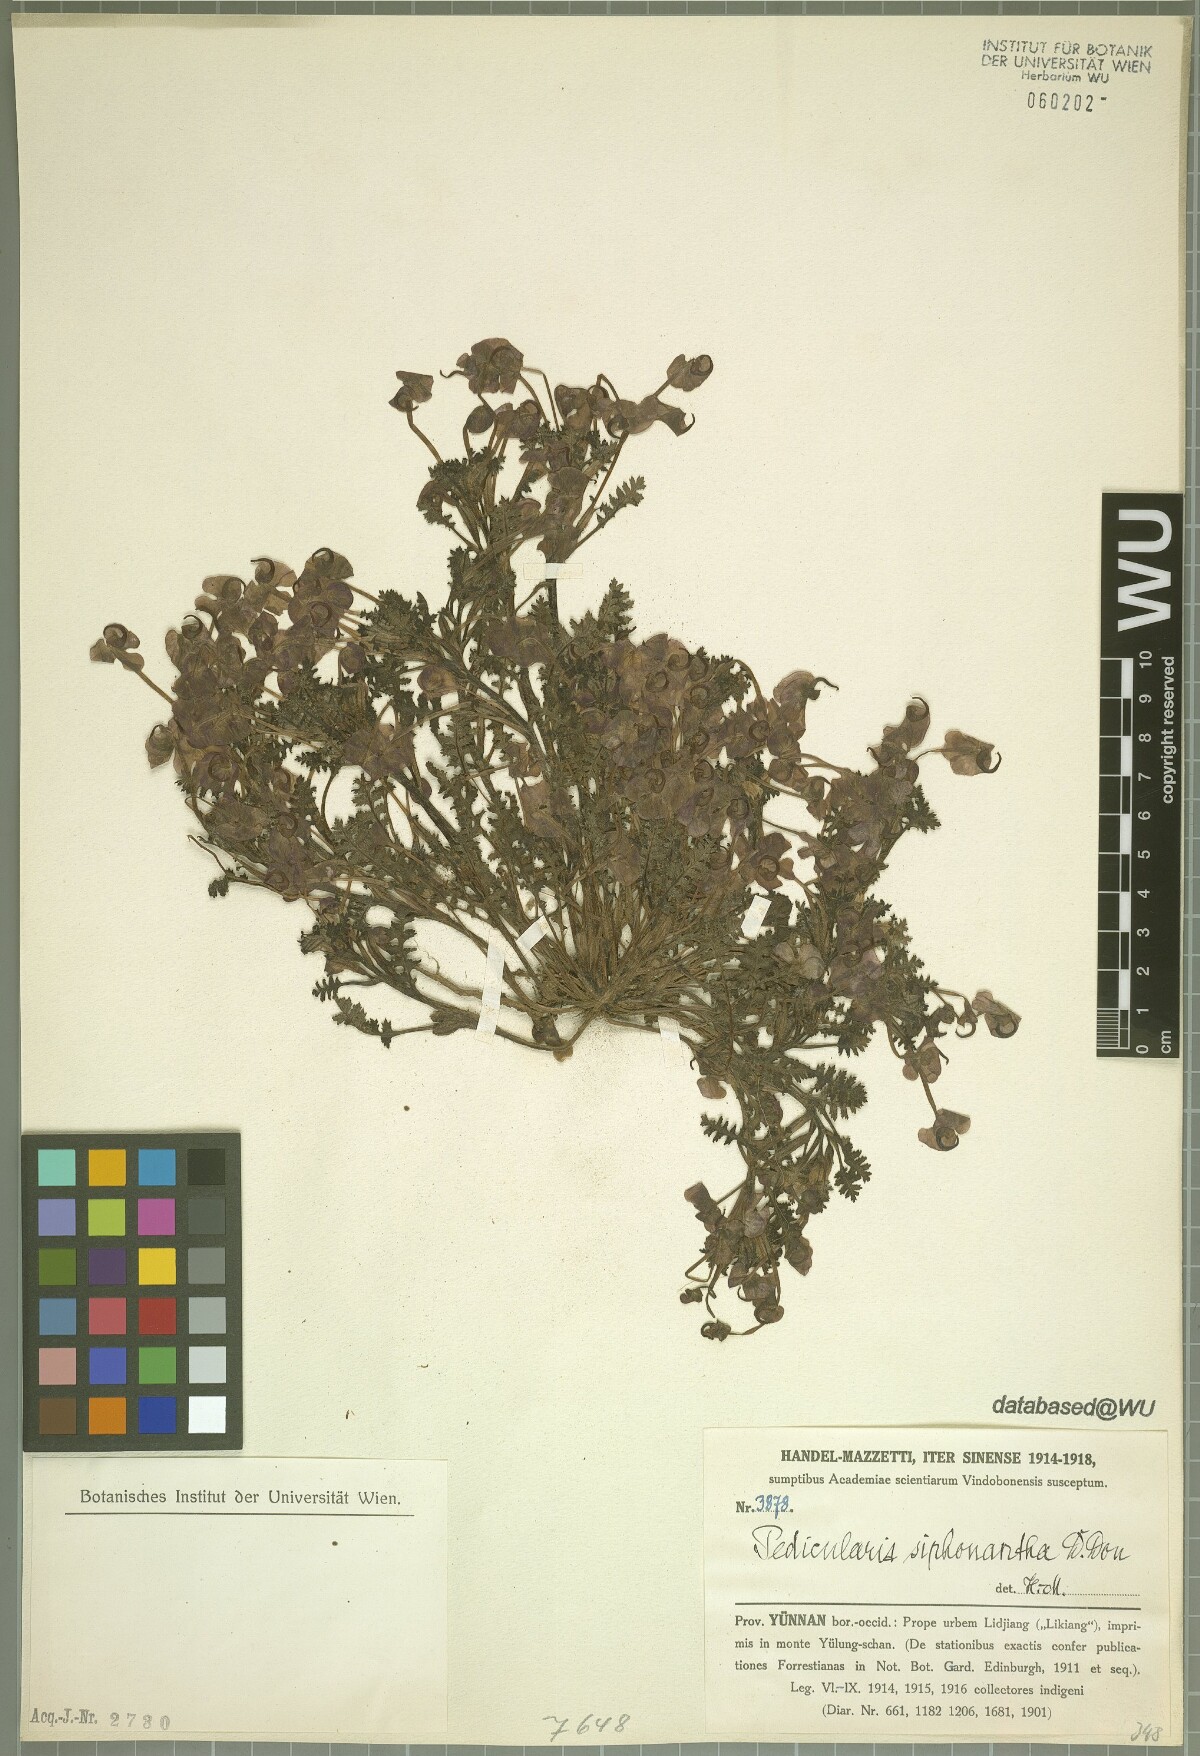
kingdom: Plantae
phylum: Tracheophyta
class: Magnoliopsida
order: Lamiales
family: Orobanchaceae
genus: Pedicularis
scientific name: Pedicularis siphonantha
